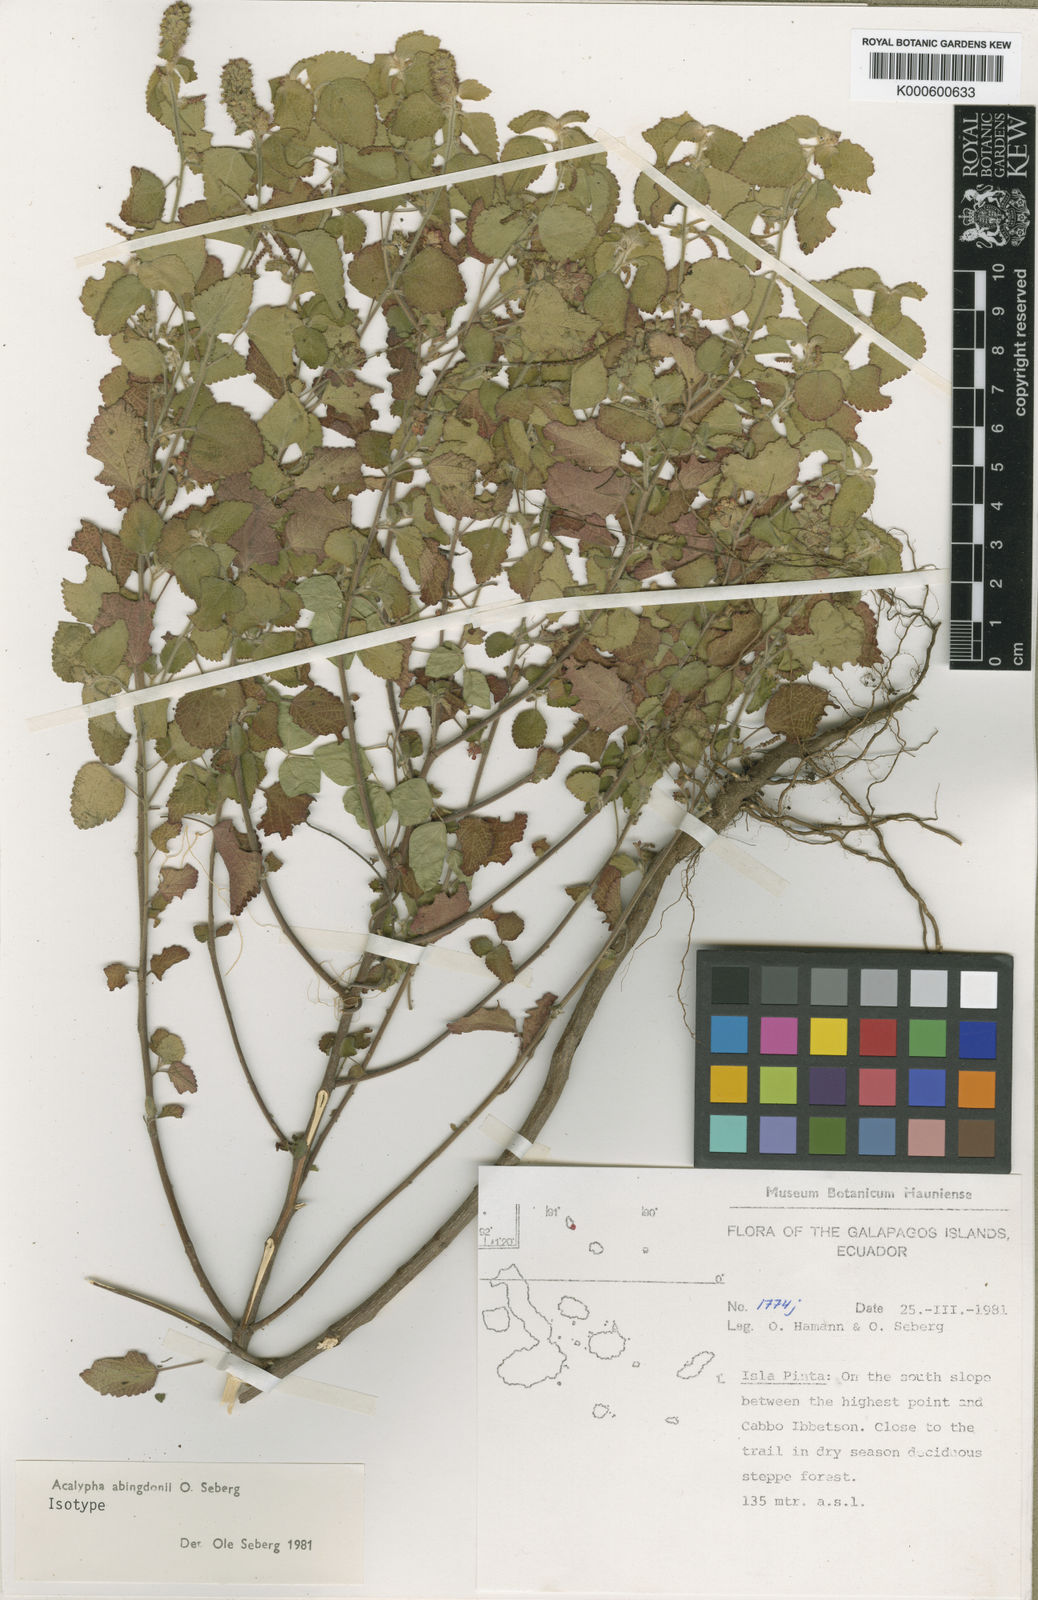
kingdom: Plantae
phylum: Tracheophyta
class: Magnoliopsida
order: Malpighiales
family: Euphorbiaceae
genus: Acalypha
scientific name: Acalypha abingdonii
